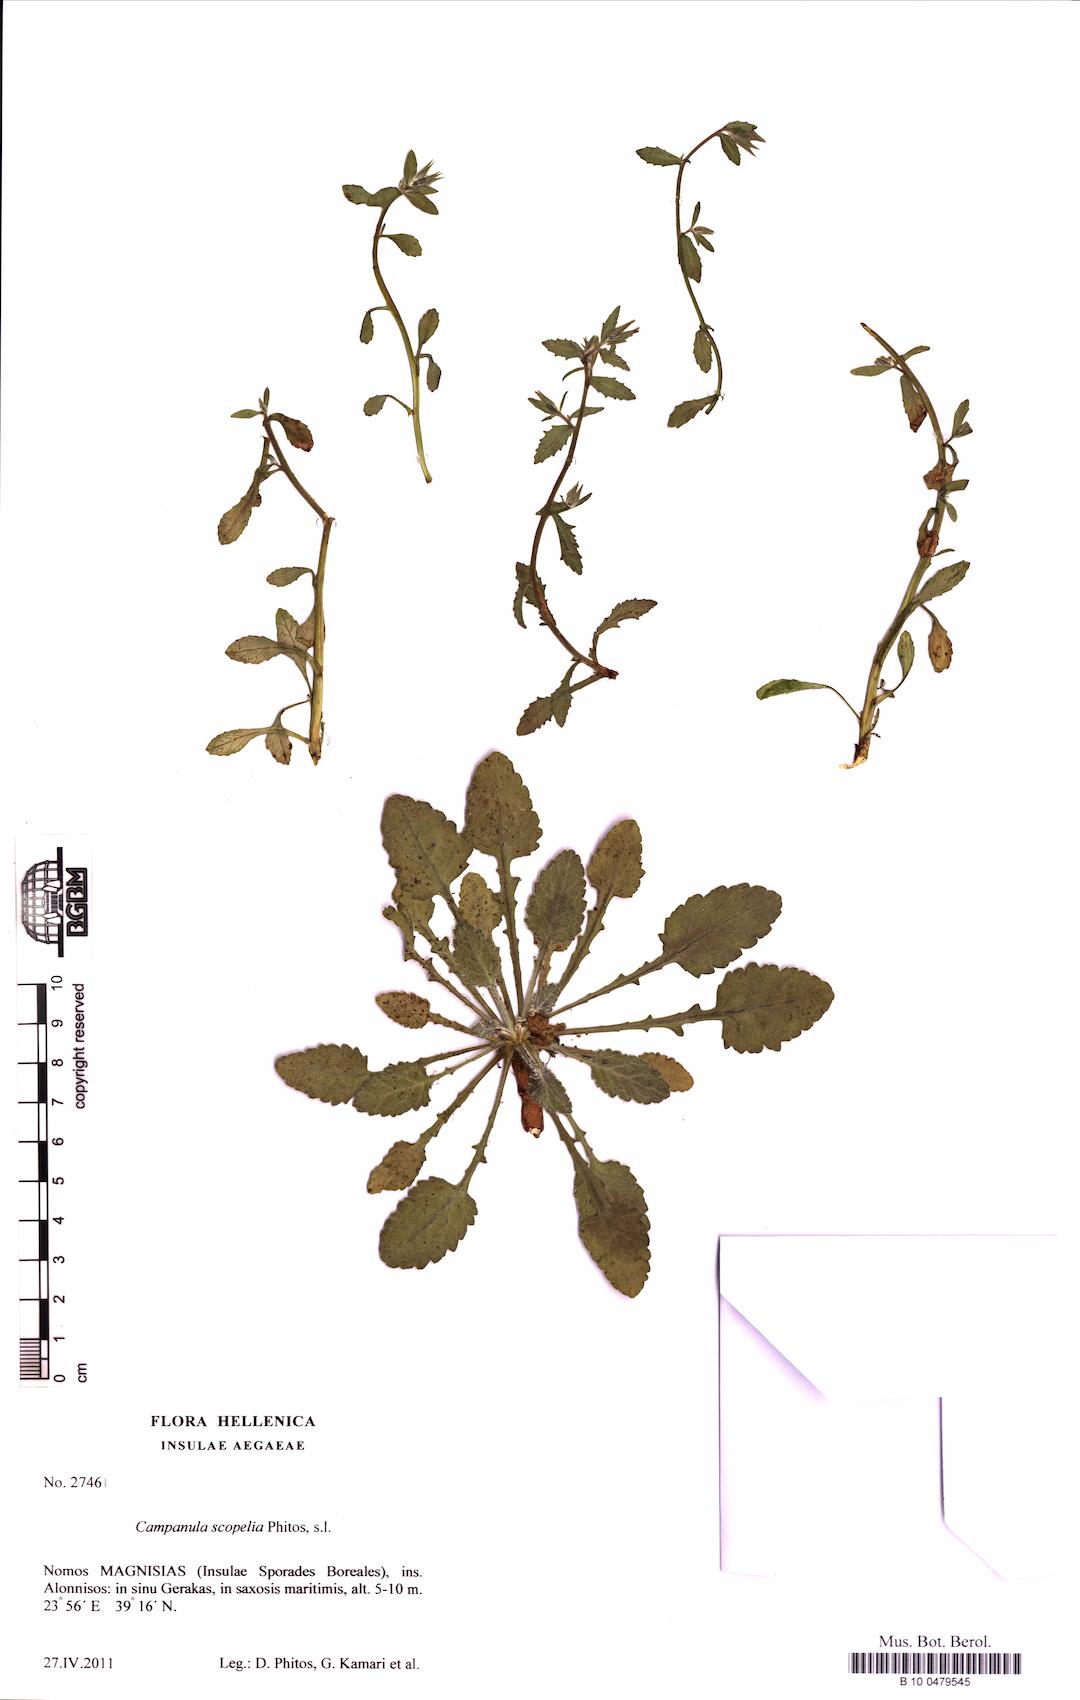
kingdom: Plantae
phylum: Tracheophyta
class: Magnoliopsida
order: Asterales
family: Campanulaceae
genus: Campanula
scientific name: Campanula scopelia
